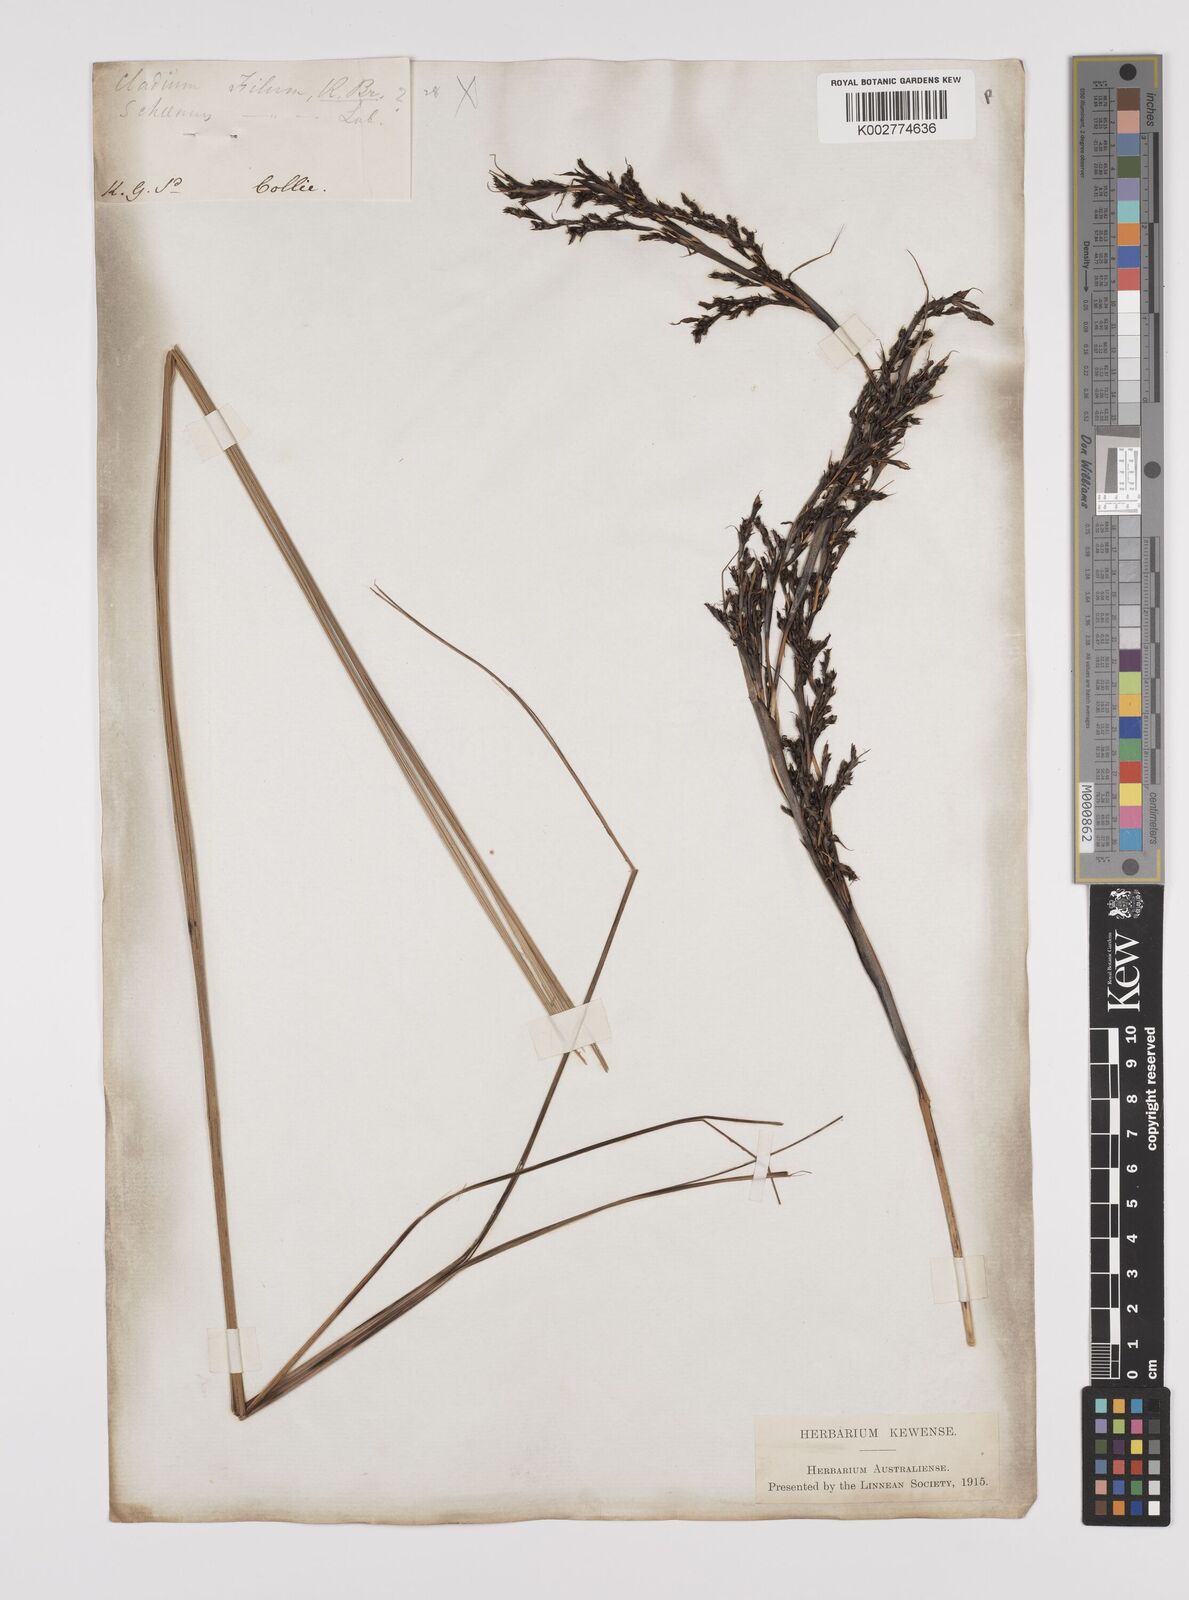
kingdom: Plantae
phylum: Tracheophyta
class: Liliopsida
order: Poales
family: Cyperaceae
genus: Gahnia
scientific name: Gahnia decomposita
